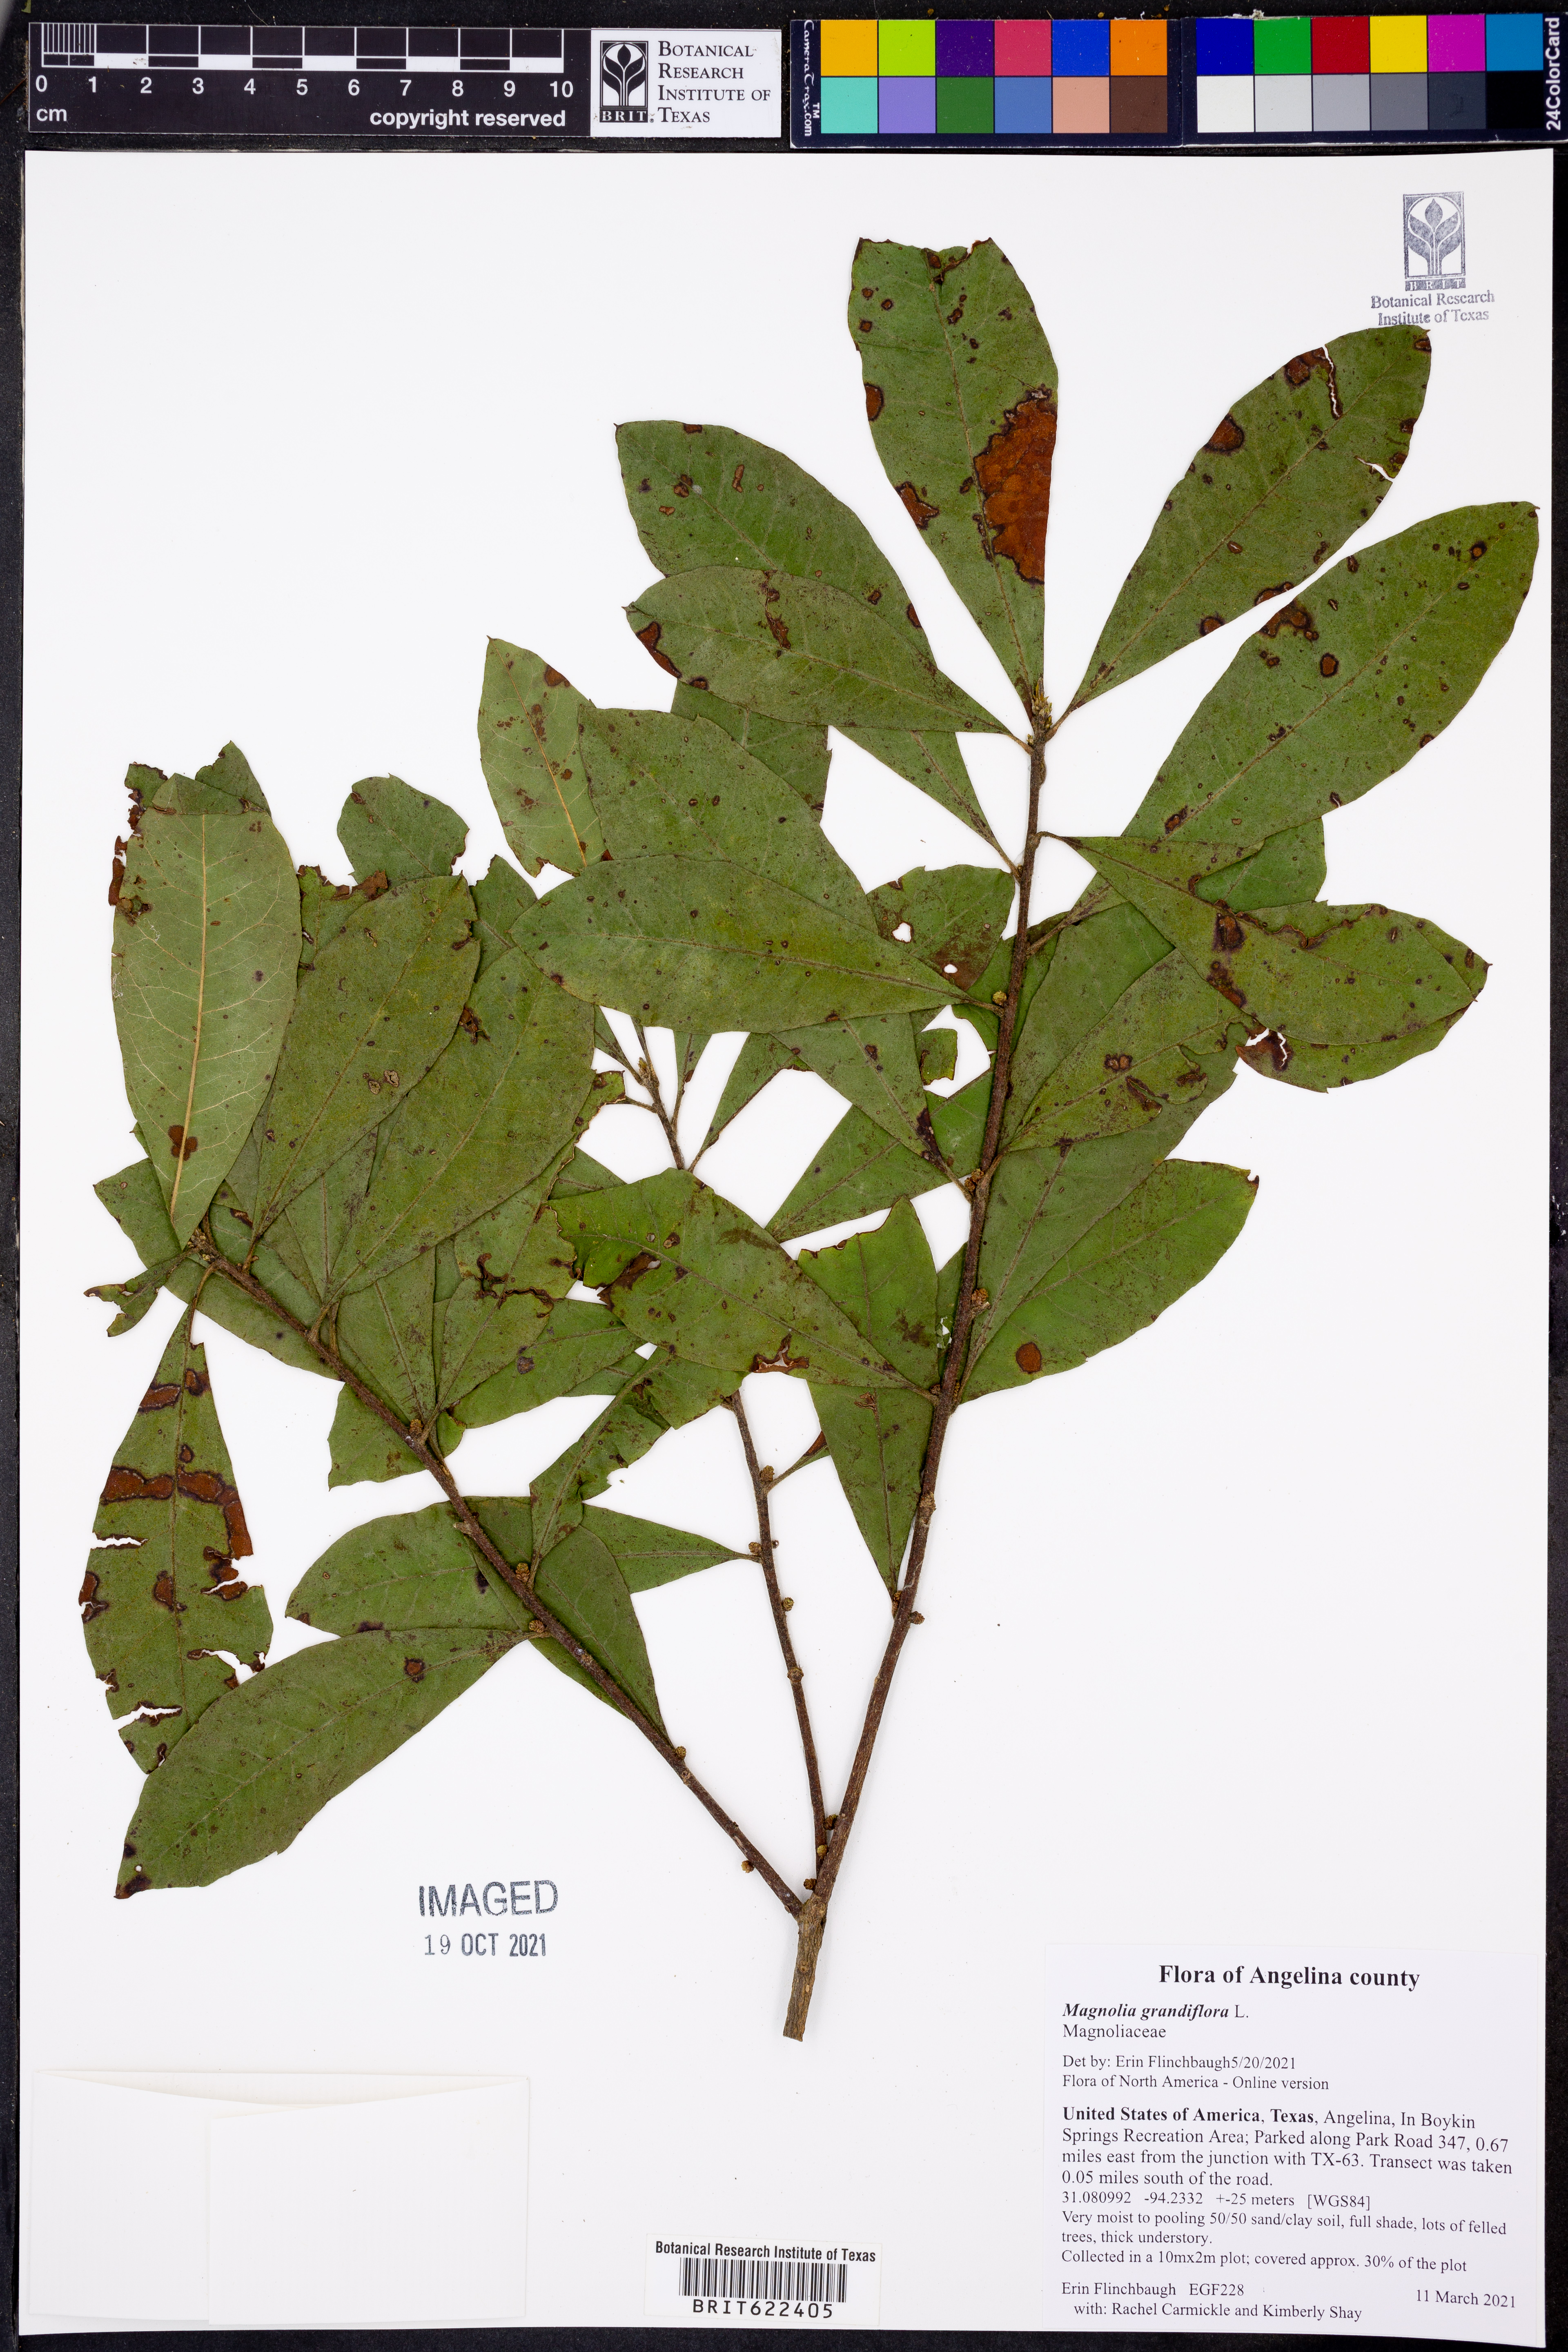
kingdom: Plantae
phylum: Tracheophyta
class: Magnoliopsida
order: Magnoliales
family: Magnoliaceae
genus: Magnolia
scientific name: Magnolia grandiflora
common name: Southern magnolia
